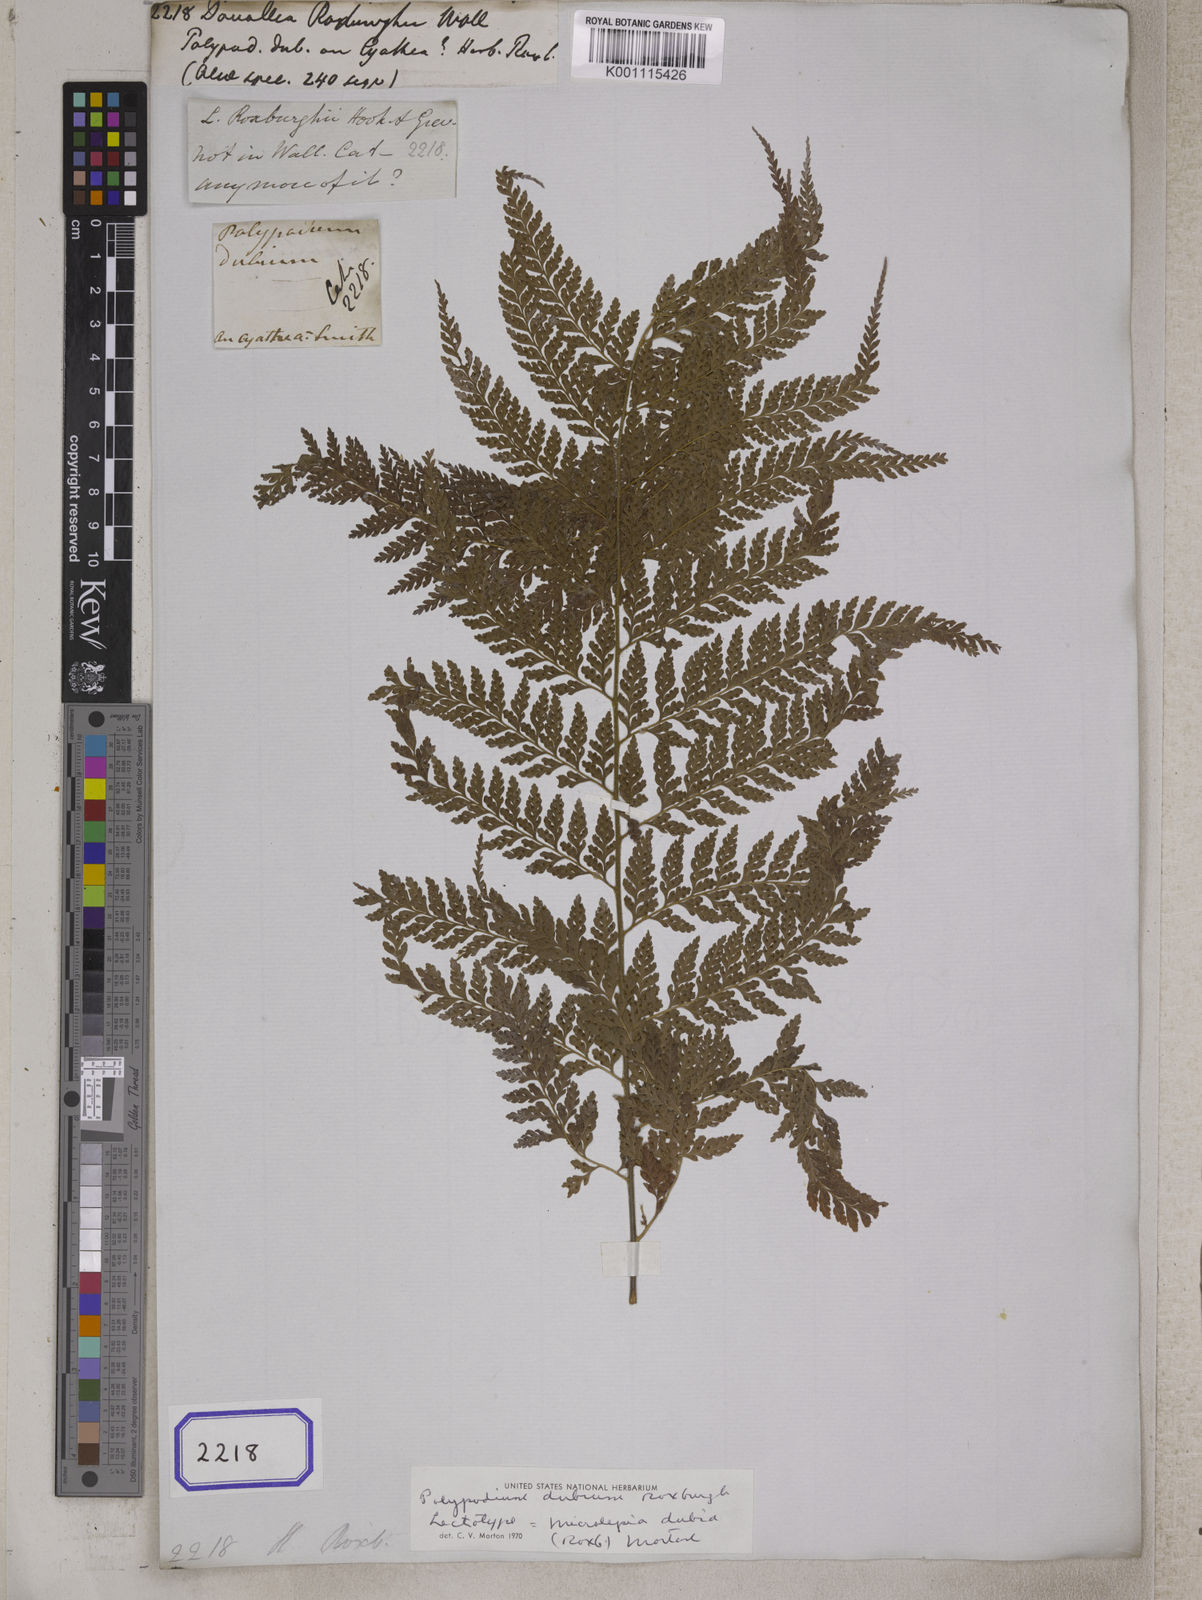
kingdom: Plantae
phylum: Tracheophyta
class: Polypodiopsida
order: Polypodiales
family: Dennstaedtiaceae
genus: Microlepia
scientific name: Microlepia marginata
